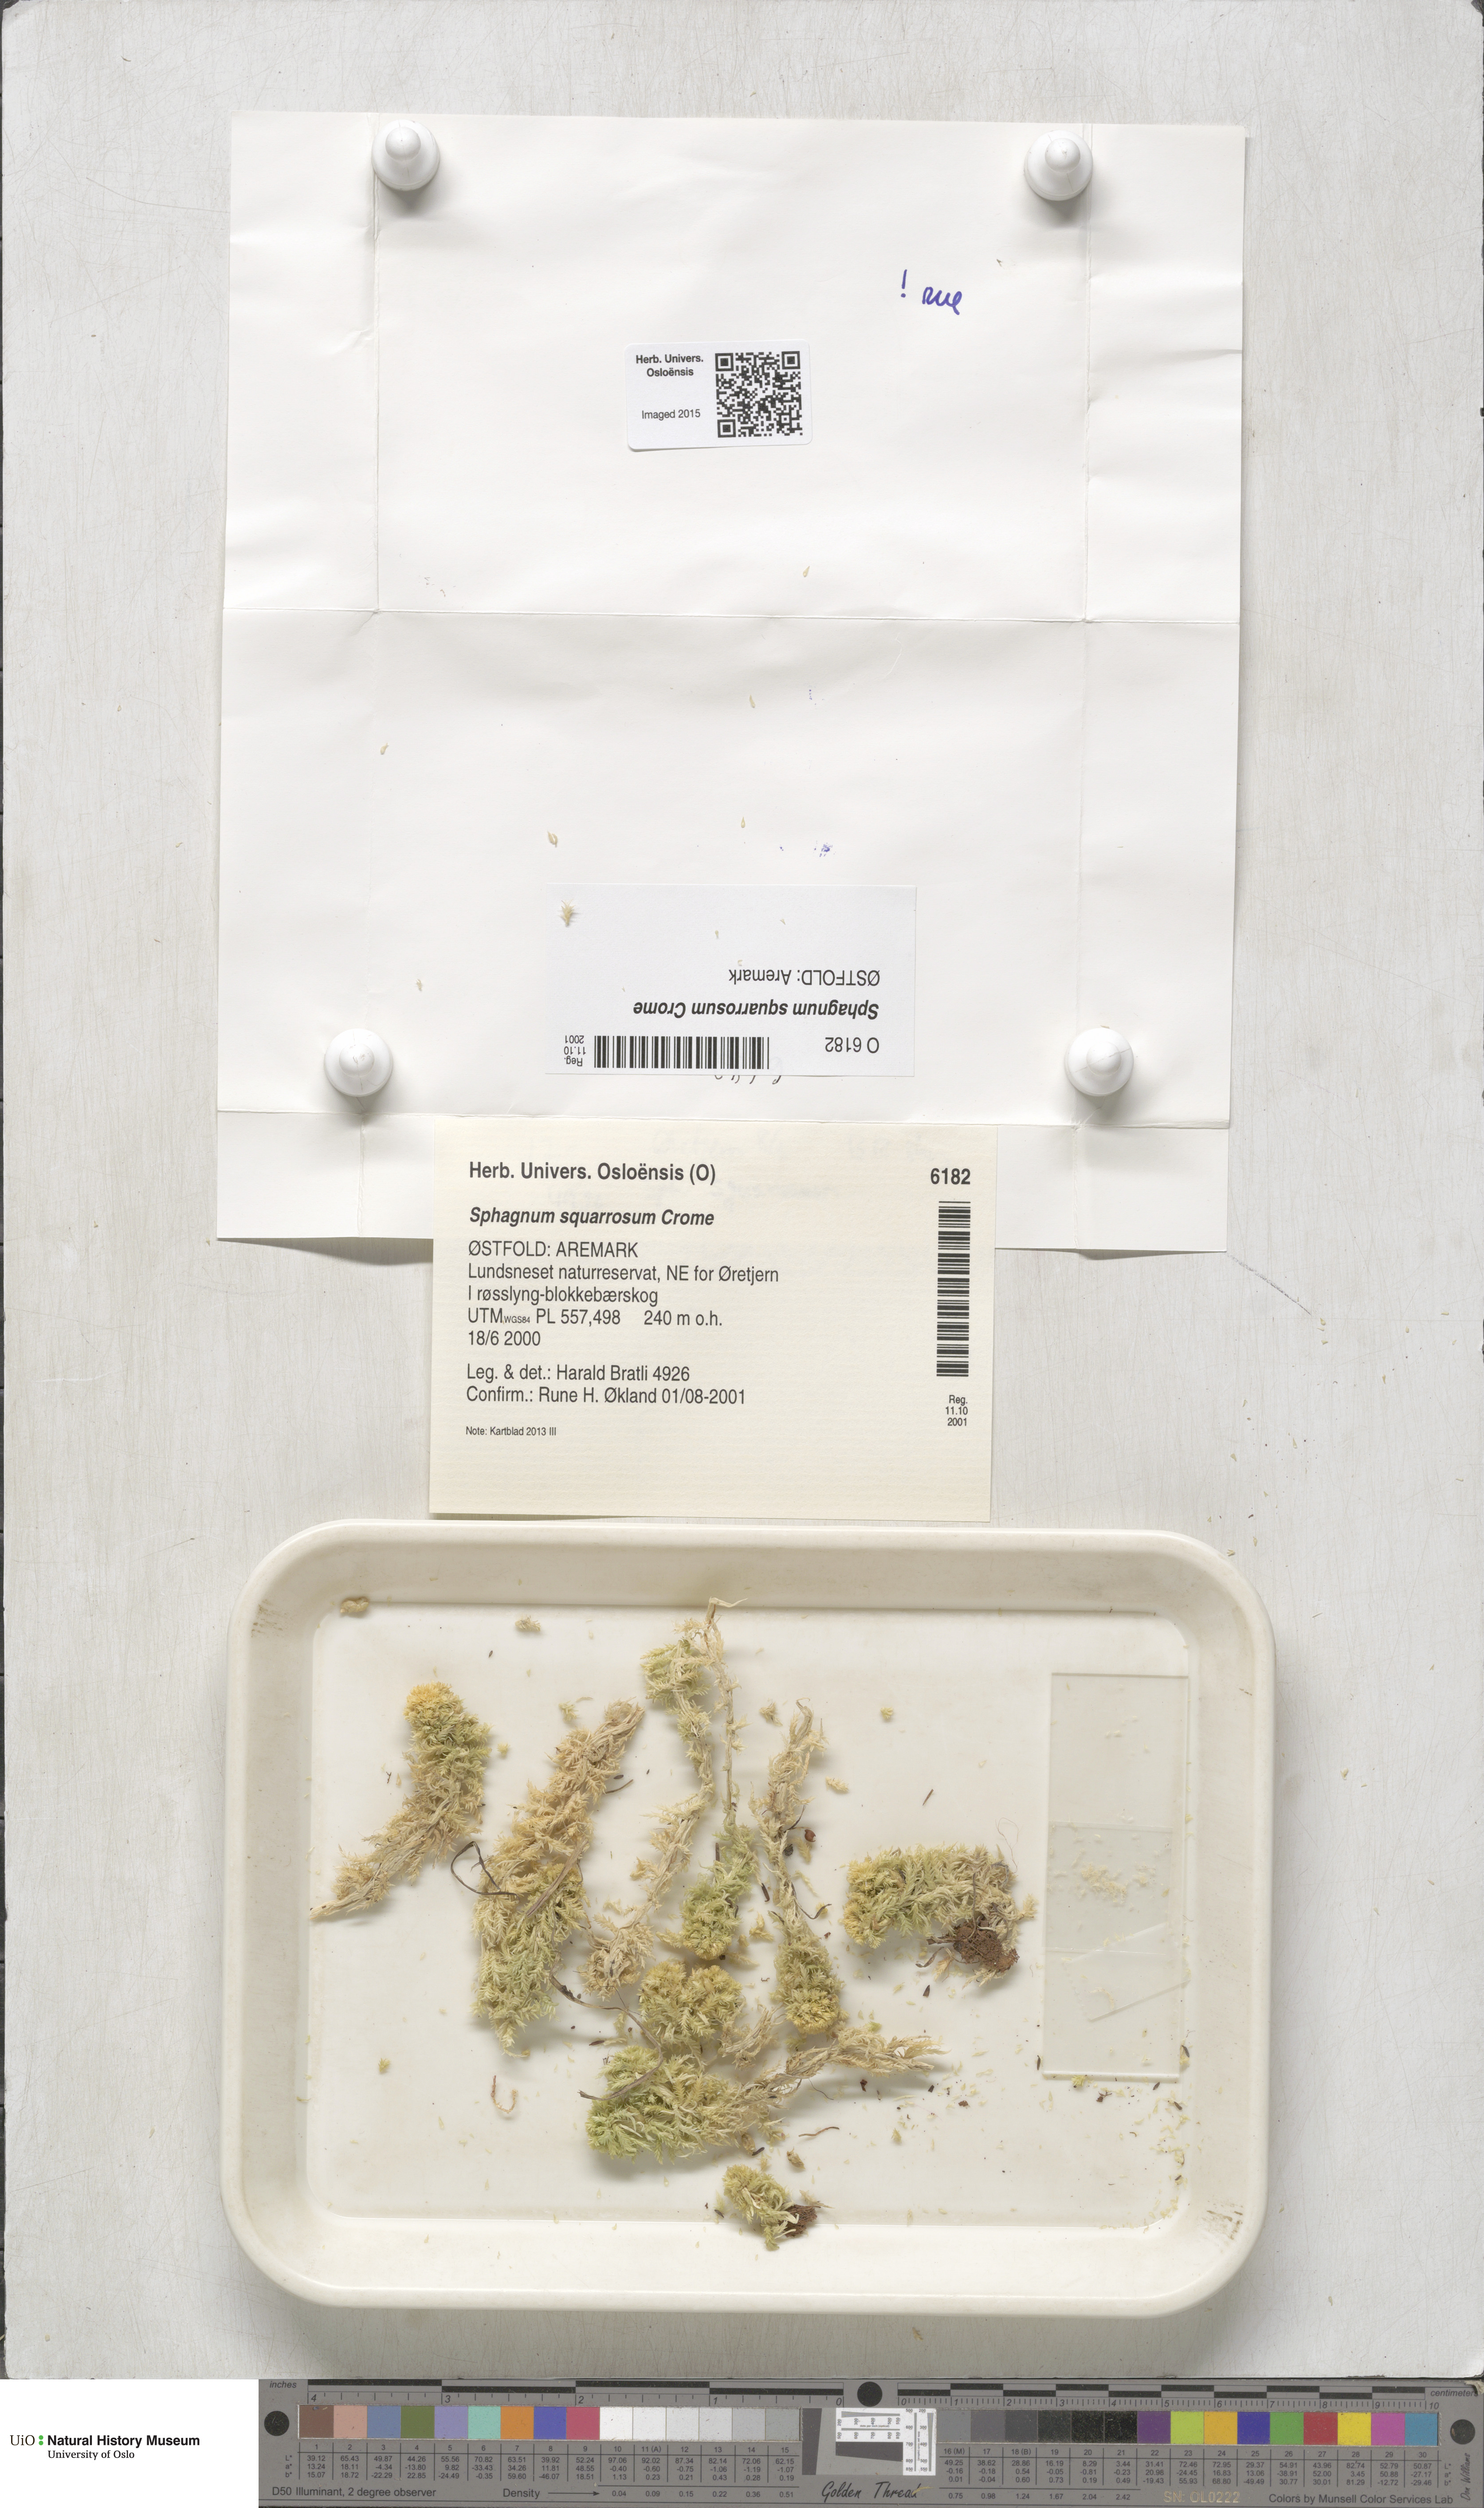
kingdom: Plantae
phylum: Bryophyta
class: Sphagnopsida
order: Sphagnales
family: Sphagnaceae
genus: Sphagnum
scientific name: Sphagnum squarrosum
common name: Shaggy peat moss
